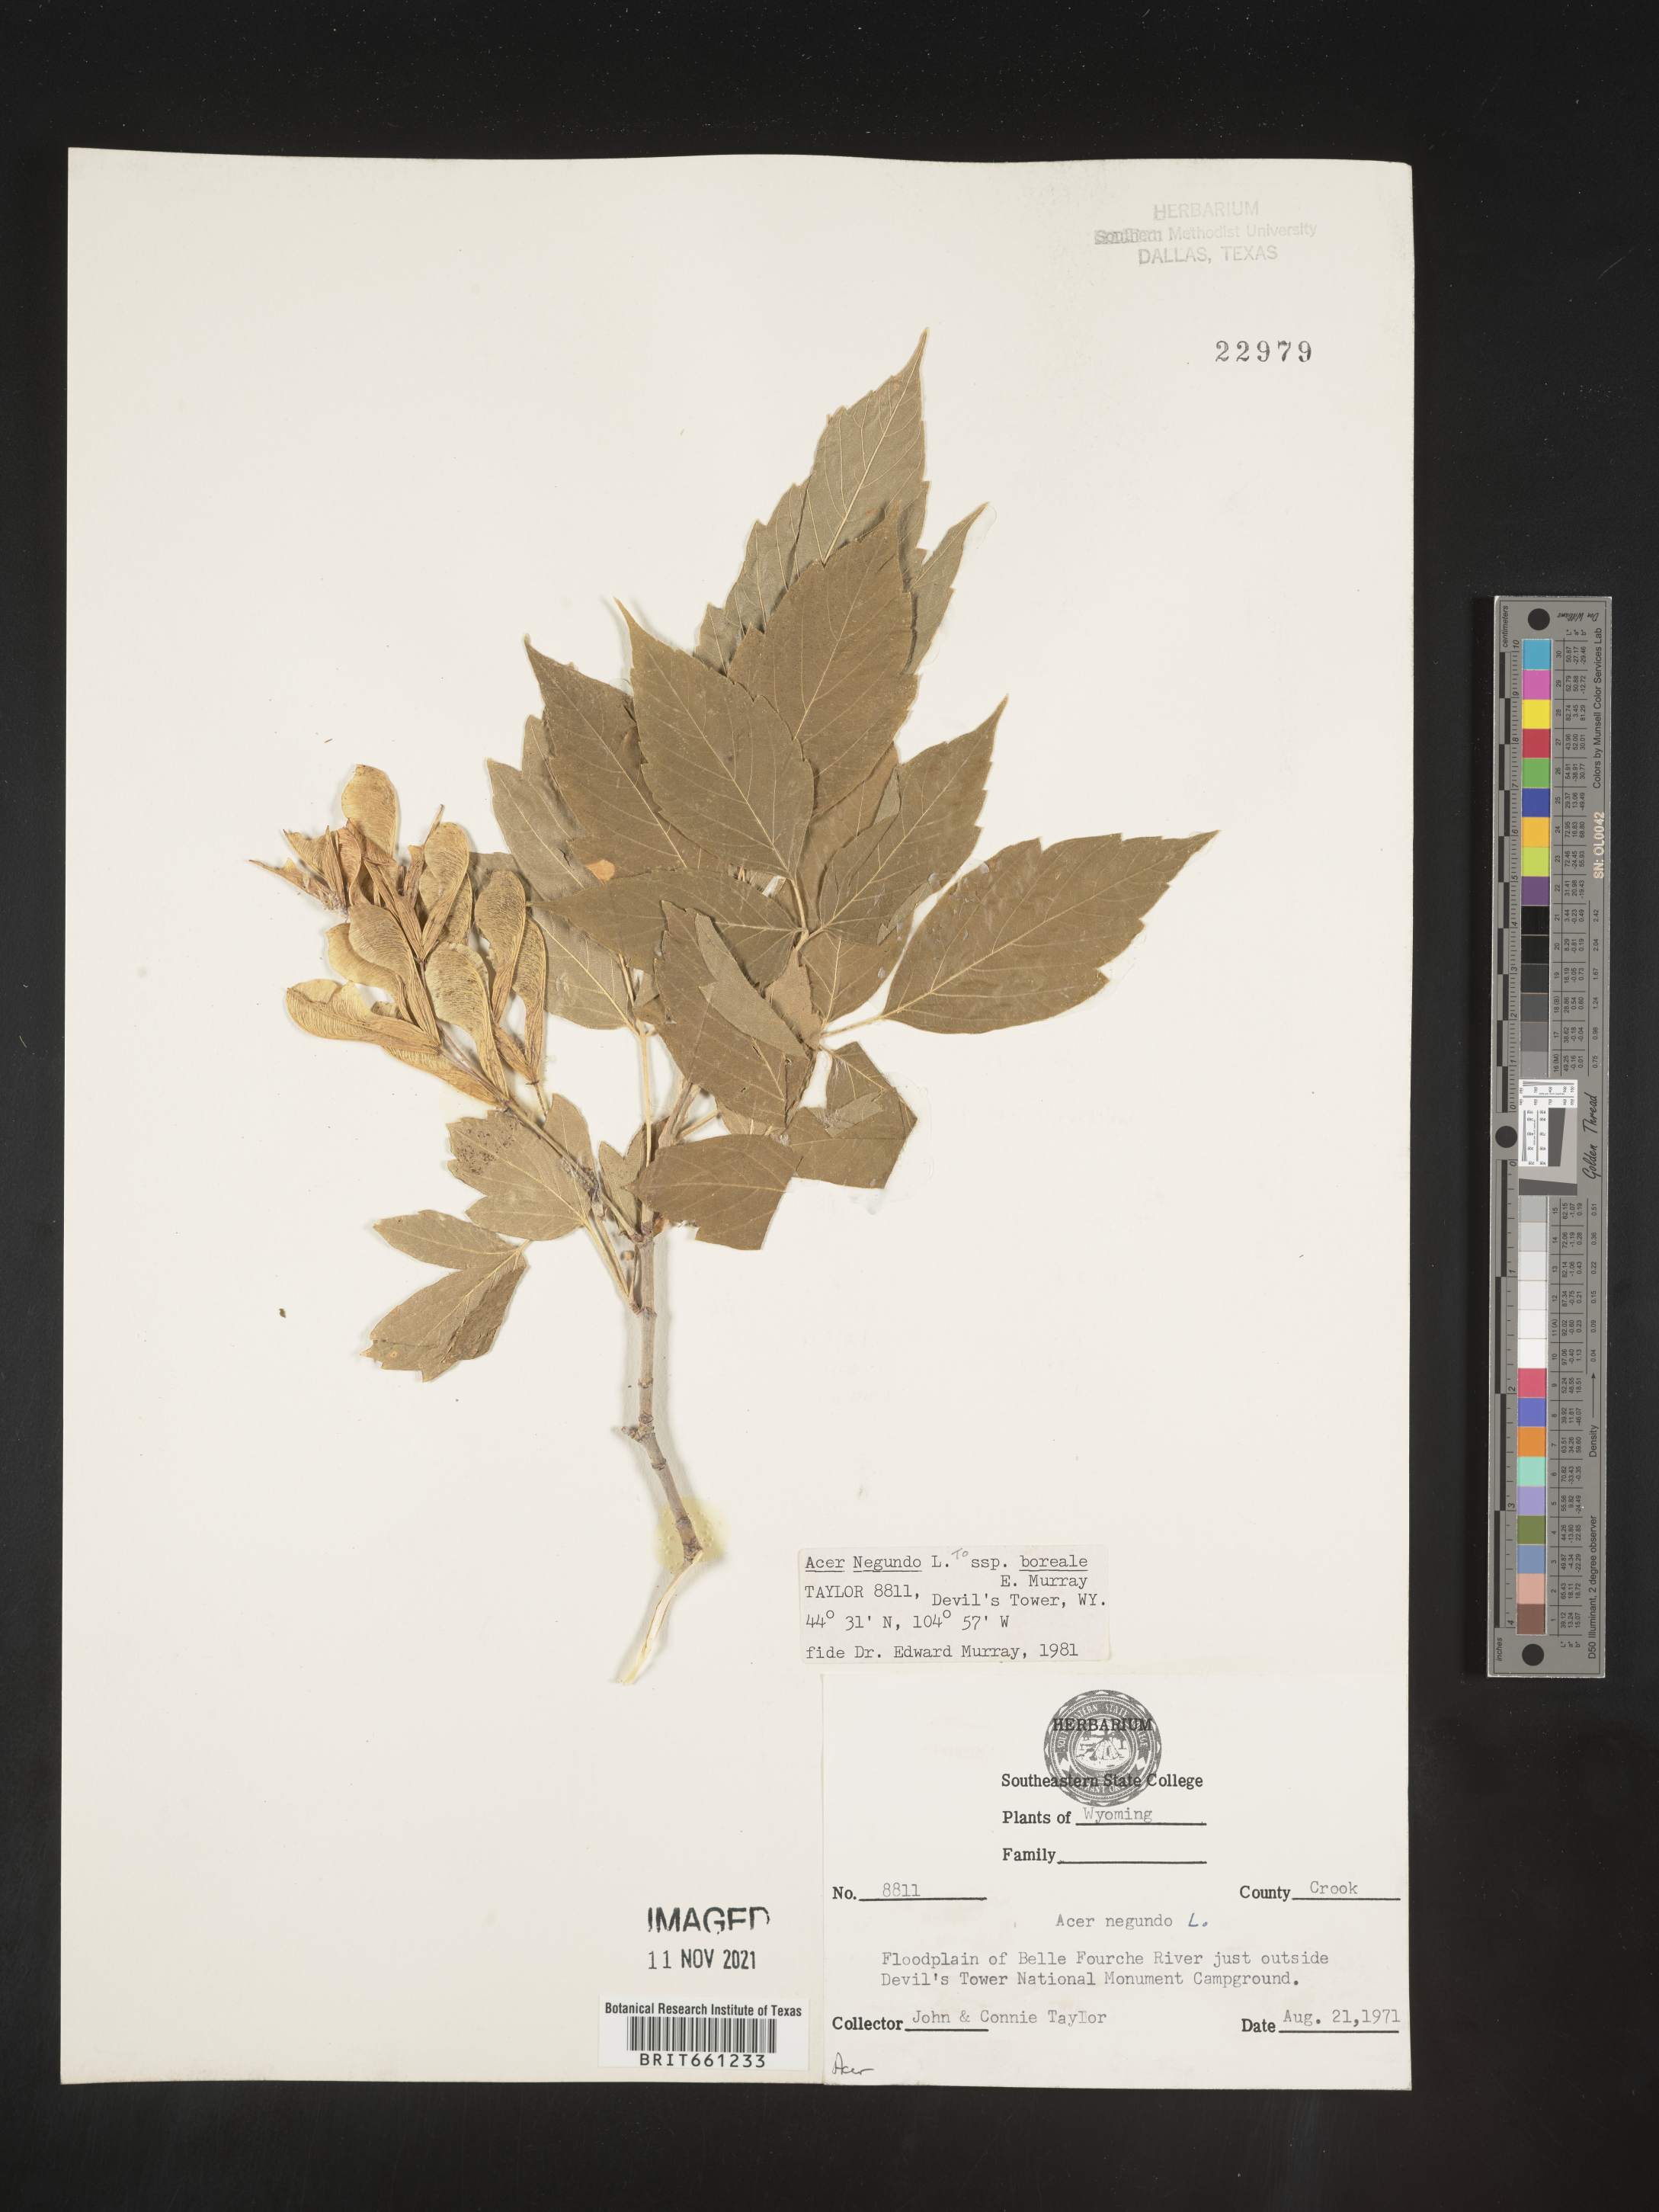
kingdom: Plantae
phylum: Tracheophyta
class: Magnoliopsida
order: Sapindales
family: Sapindaceae
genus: Acer
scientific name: Acer negundo
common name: Ashleaf maple
